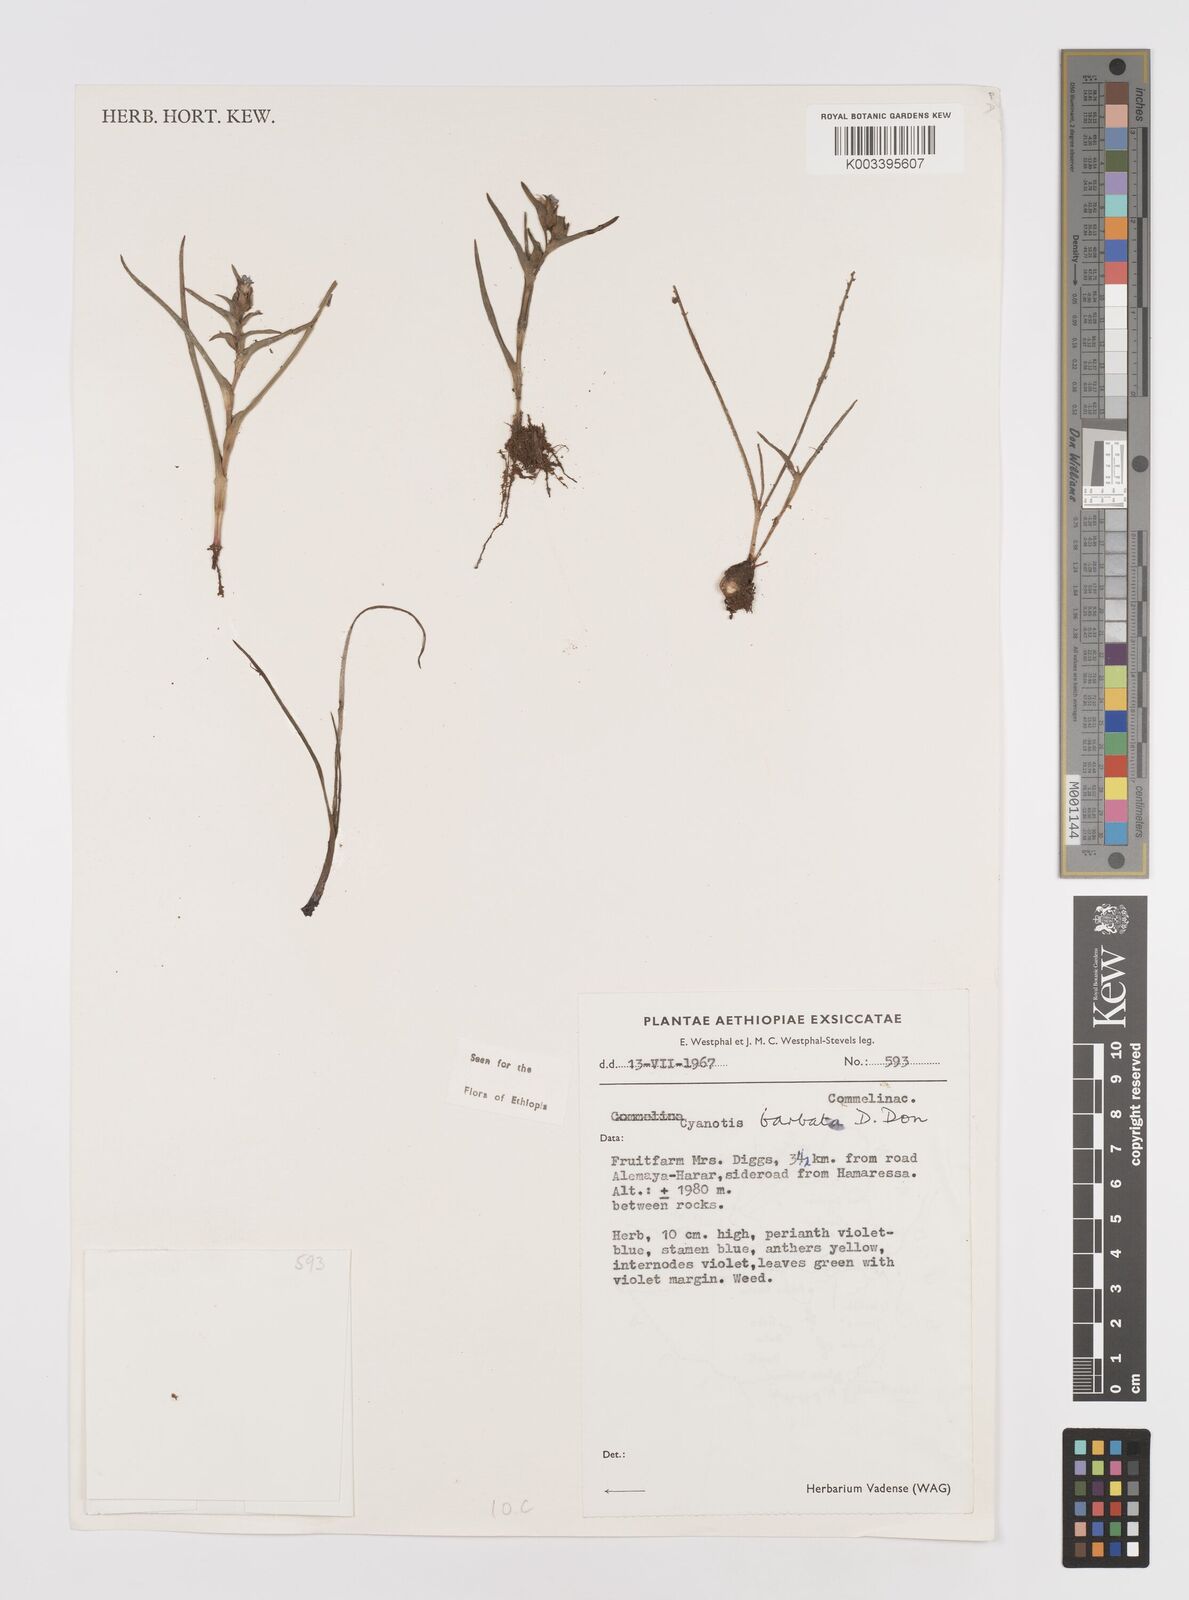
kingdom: Plantae
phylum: Tracheophyta
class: Liliopsida
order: Commelinales
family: Commelinaceae
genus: Cyanotis
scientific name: Cyanotis vaga
